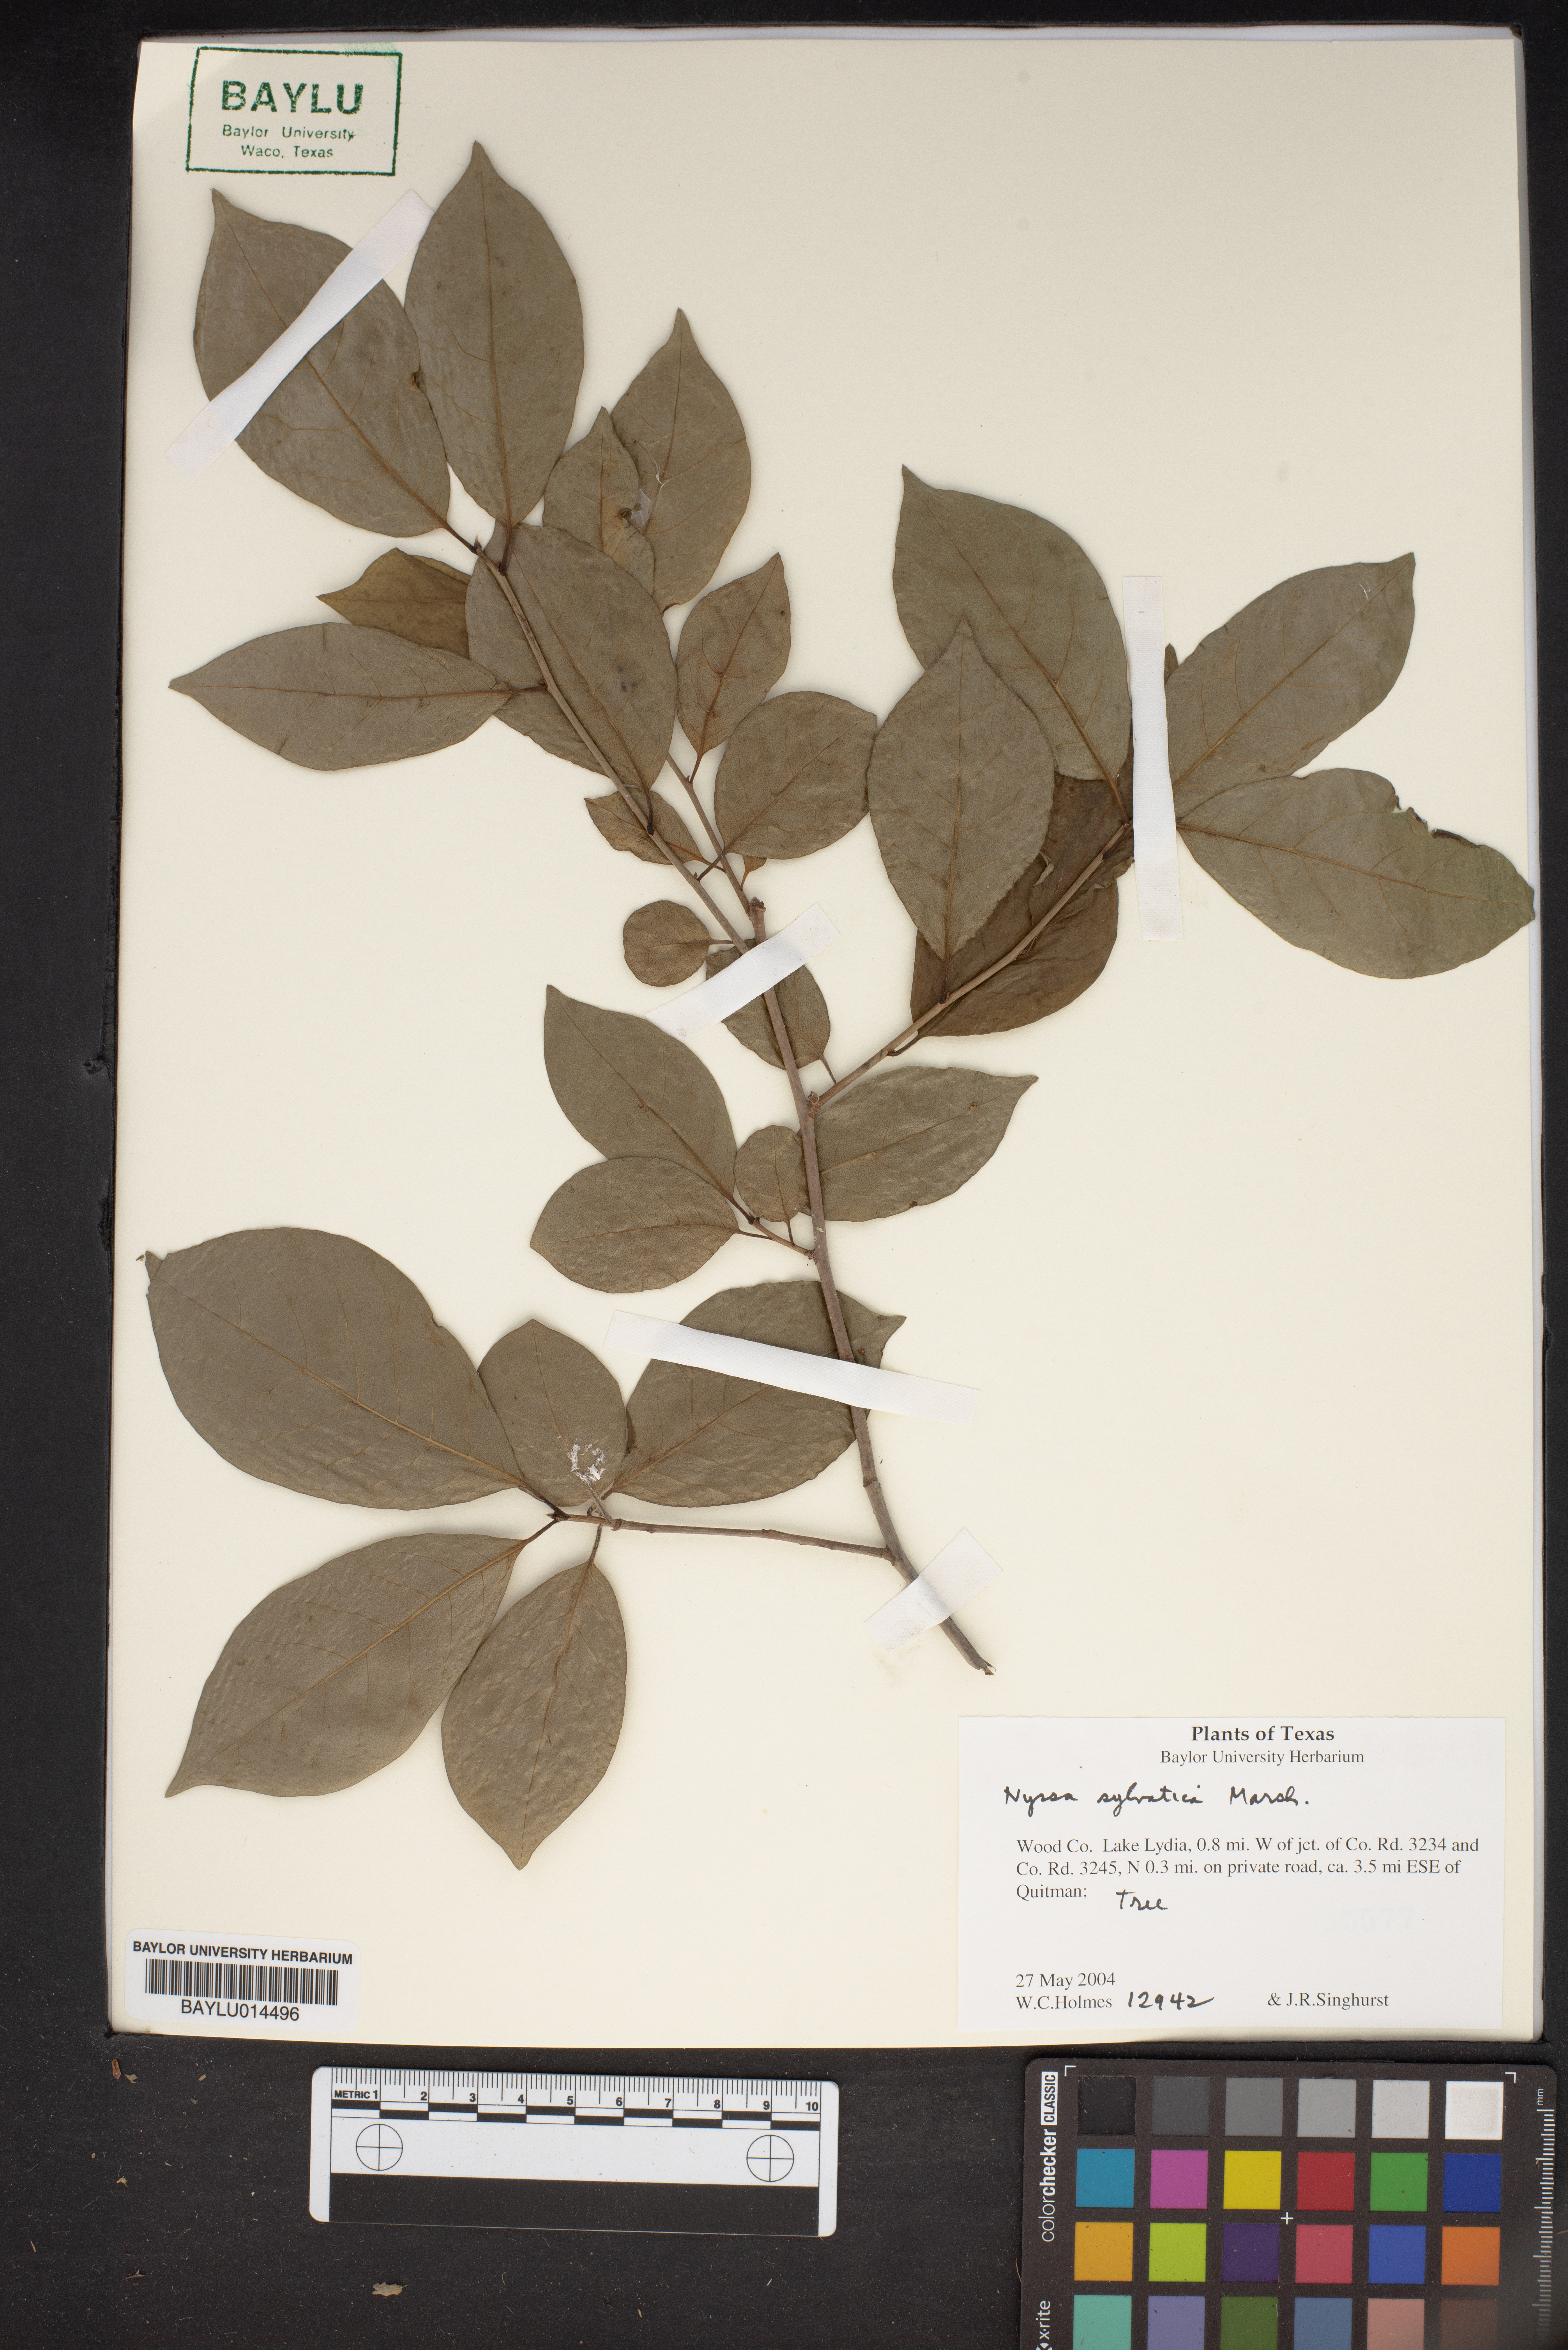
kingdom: Plantae
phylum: Tracheophyta
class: Magnoliopsida
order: Cornales
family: Nyssaceae
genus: Nyssa
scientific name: Nyssa sylvatica
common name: Black tupelo
